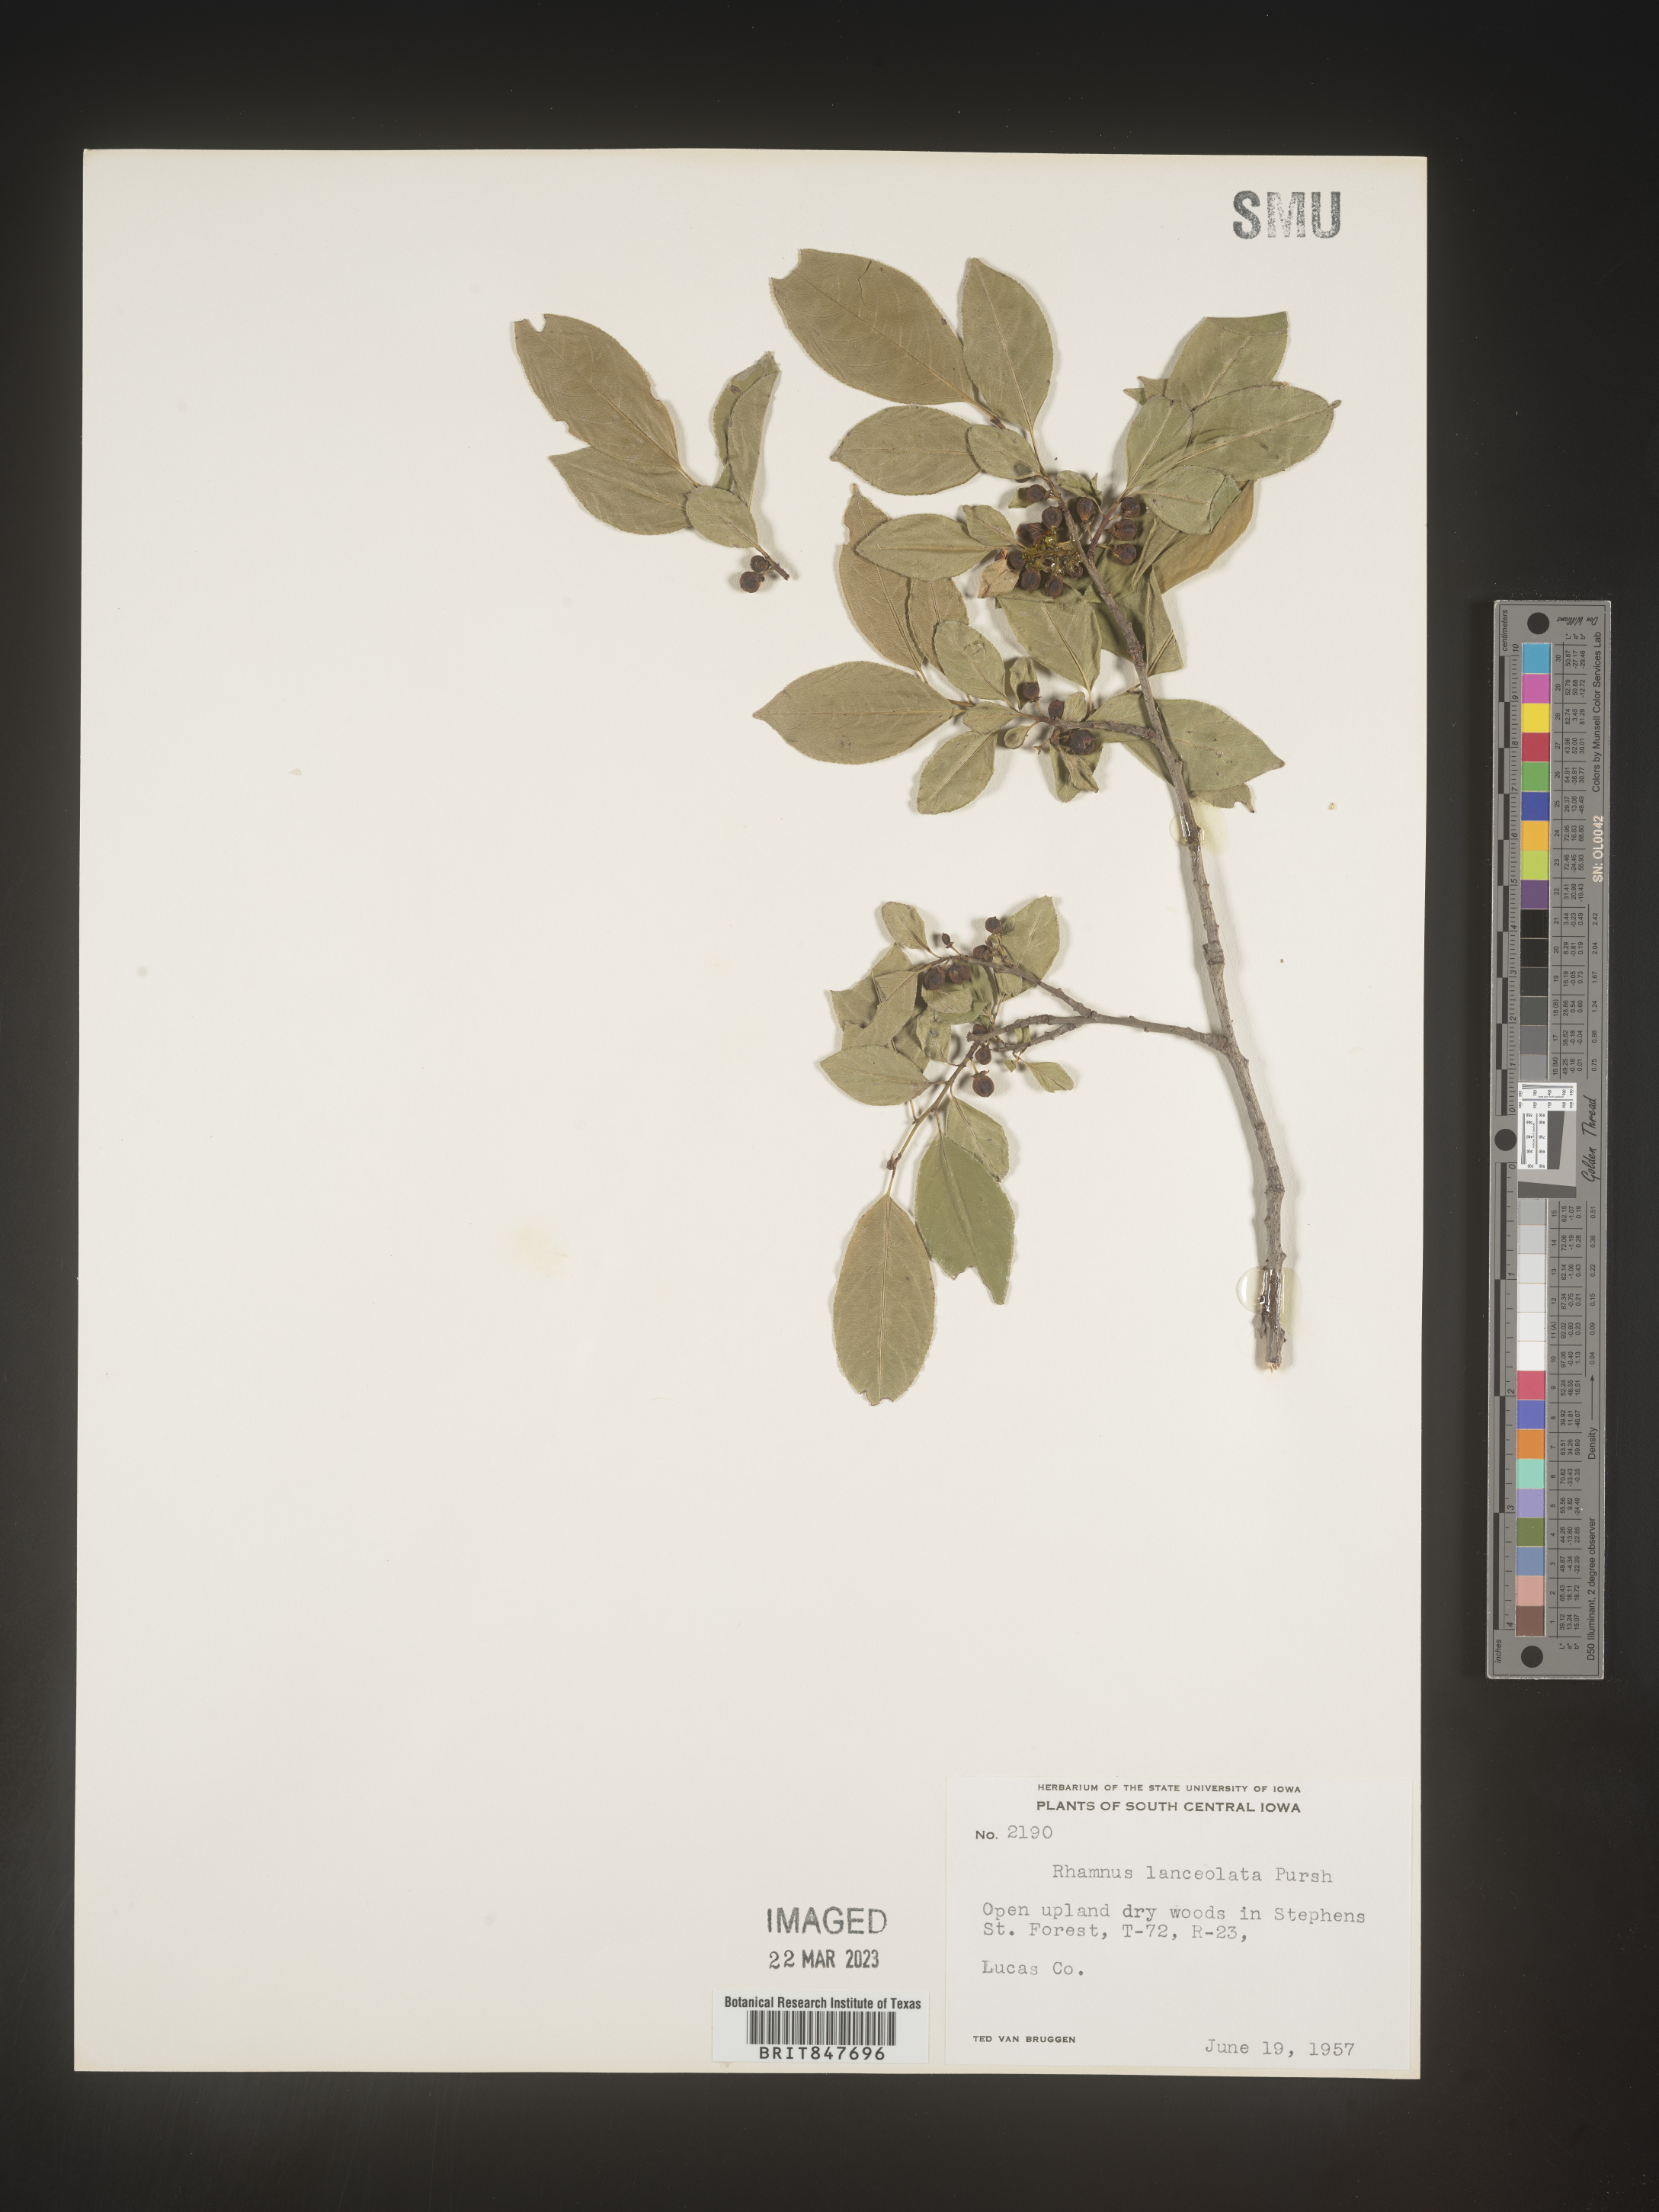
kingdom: Plantae
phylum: Tracheophyta
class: Magnoliopsida
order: Rosales
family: Rhamnaceae
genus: Endotropis
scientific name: Endotropis lanceolata
